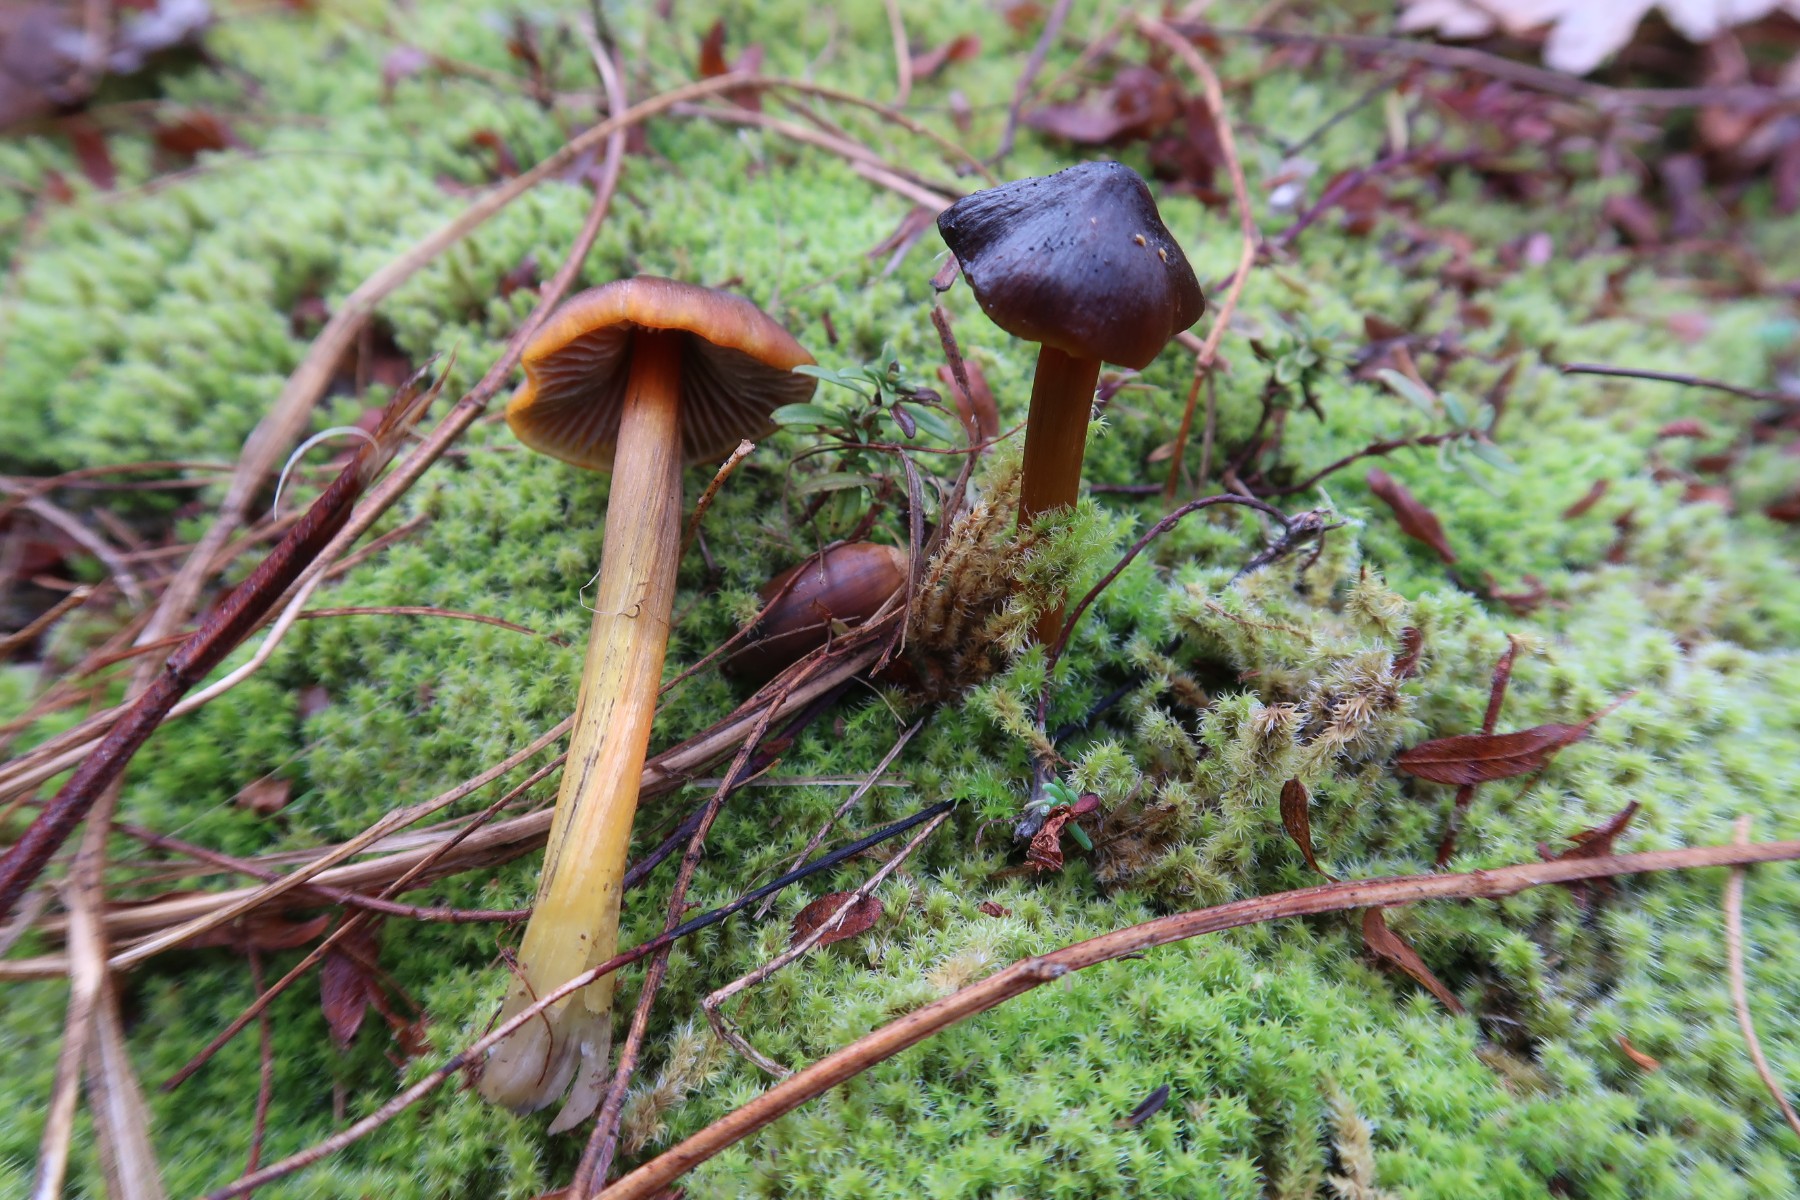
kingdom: Fungi
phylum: Basidiomycota
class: Agaricomycetes
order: Agaricales
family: Hygrophoraceae
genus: Hygrocybe
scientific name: Hygrocybe conica
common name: kegle-vokshat
